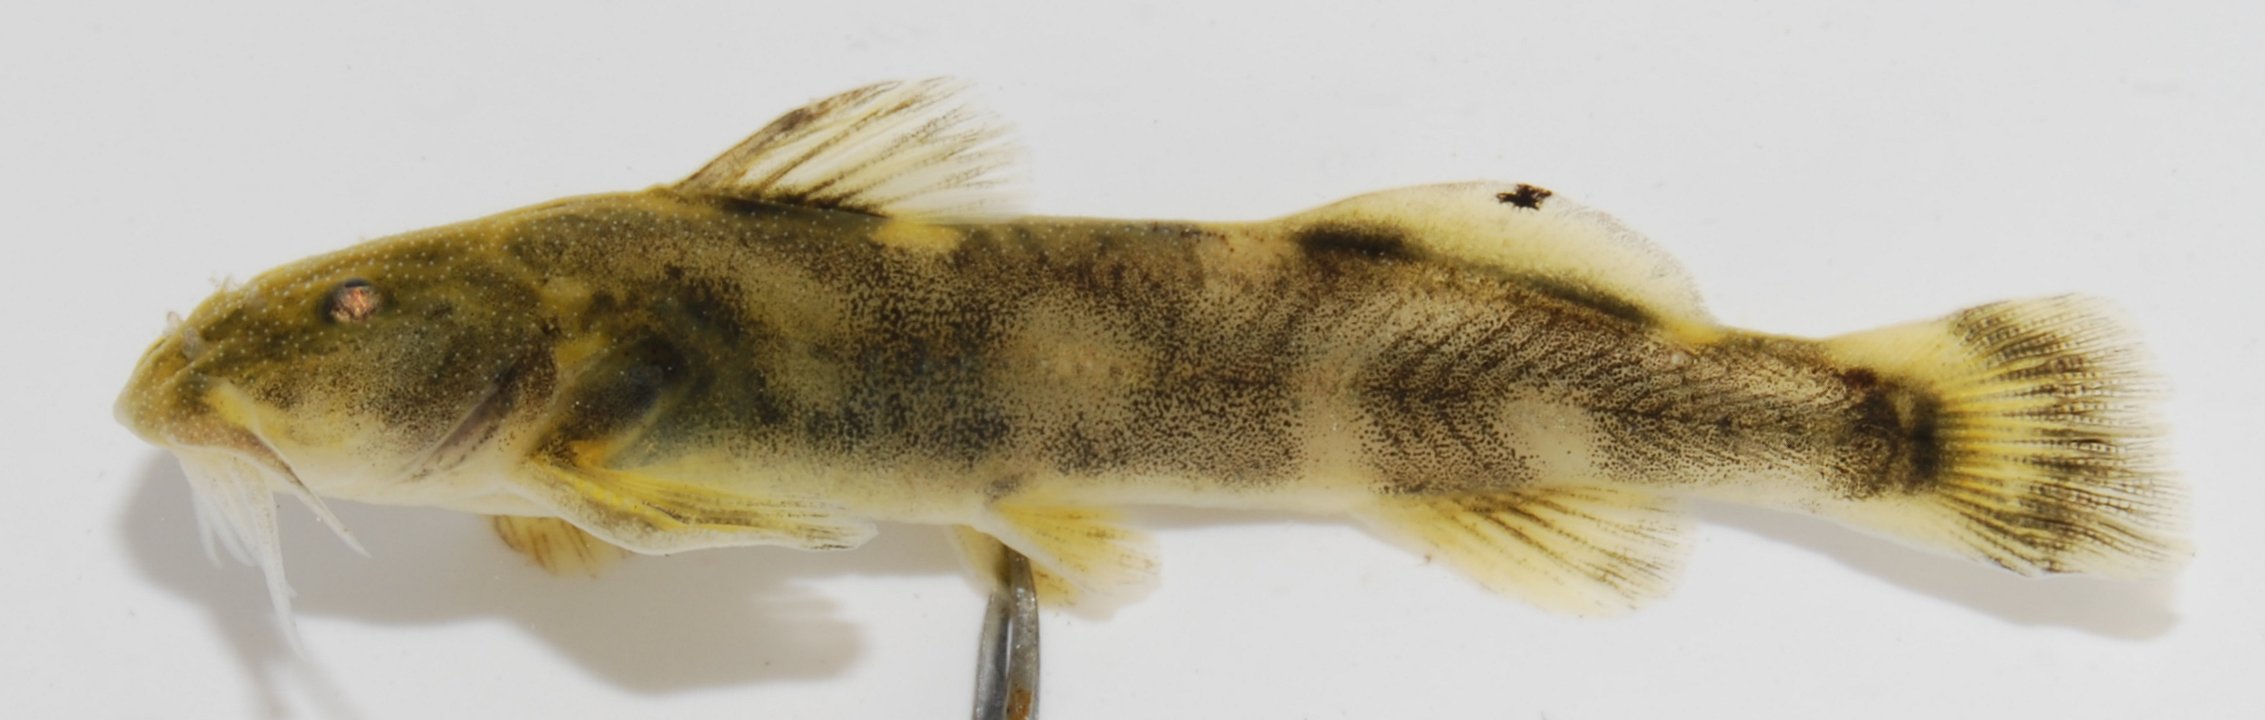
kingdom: Animalia
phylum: Chordata
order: Siluriformes
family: Amphiliidae
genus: Zaireichthys
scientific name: Zaireichthys
